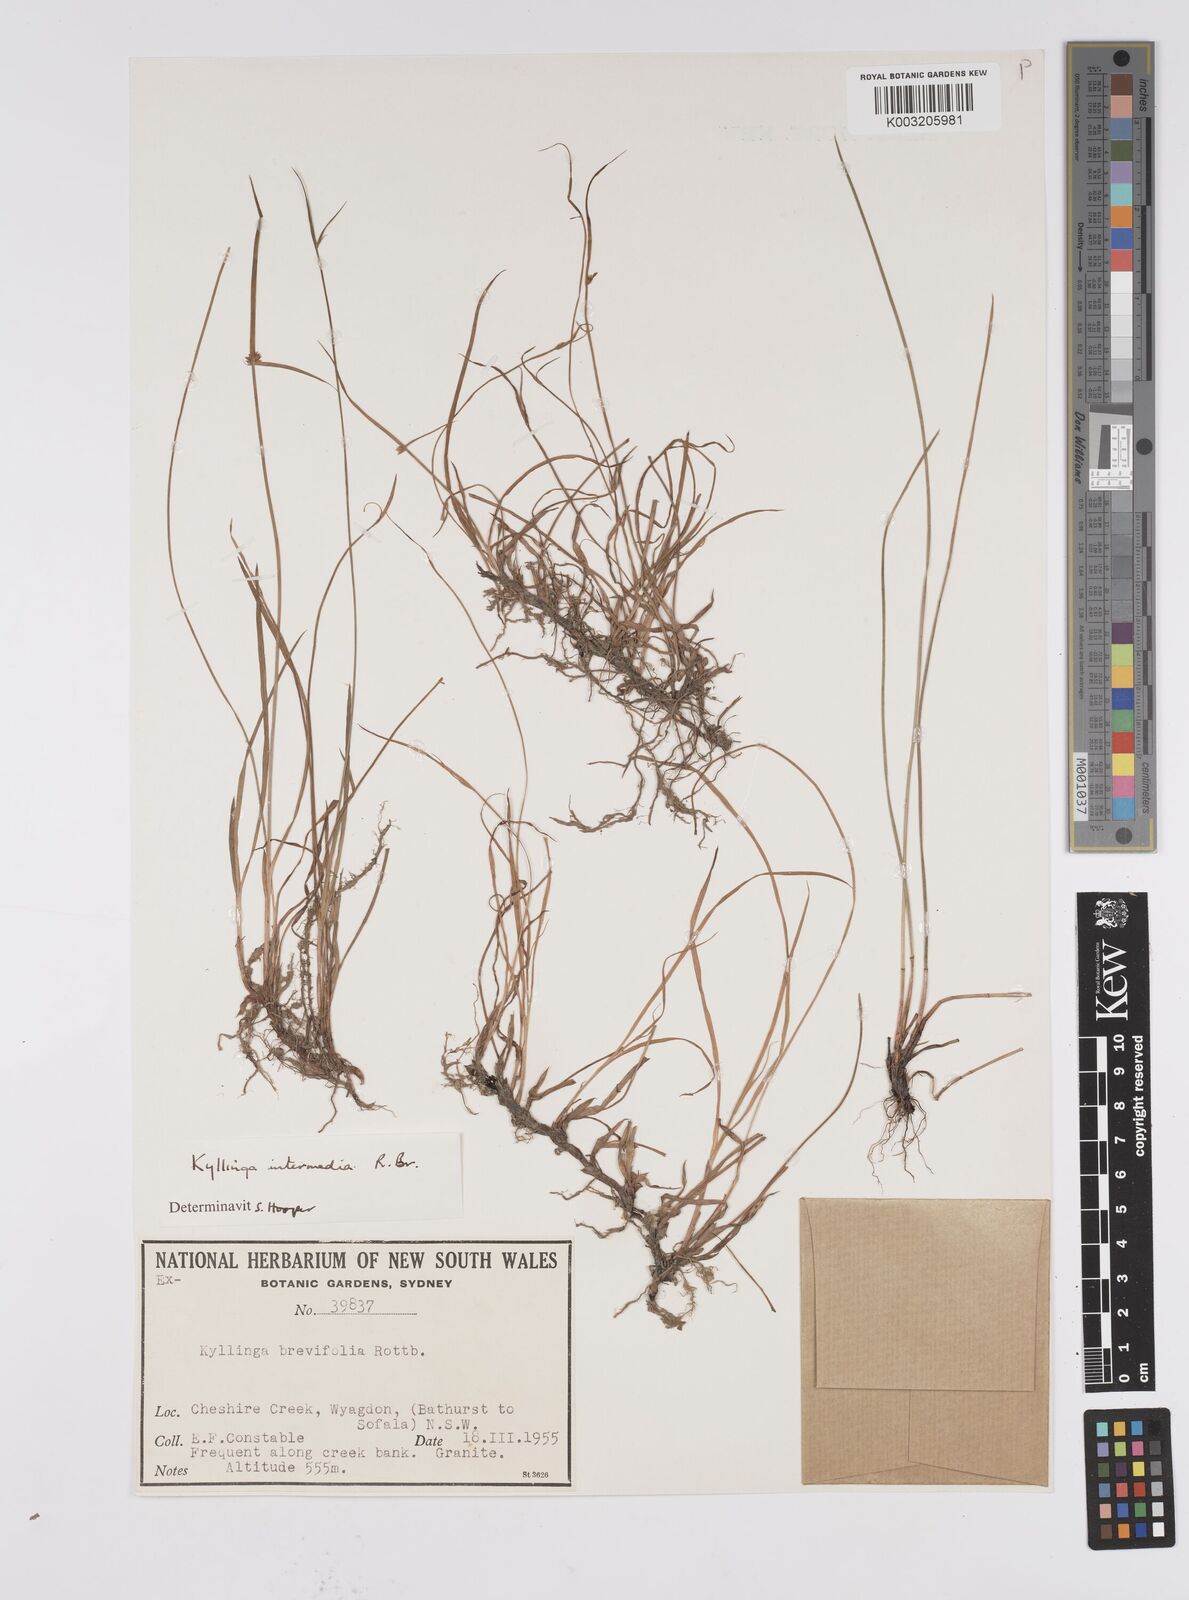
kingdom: Plantae
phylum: Tracheophyta
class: Liliopsida
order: Poales
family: Cyperaceae
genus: Cyperus
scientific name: Cyperus brevifolius
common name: Globe kyllinga
